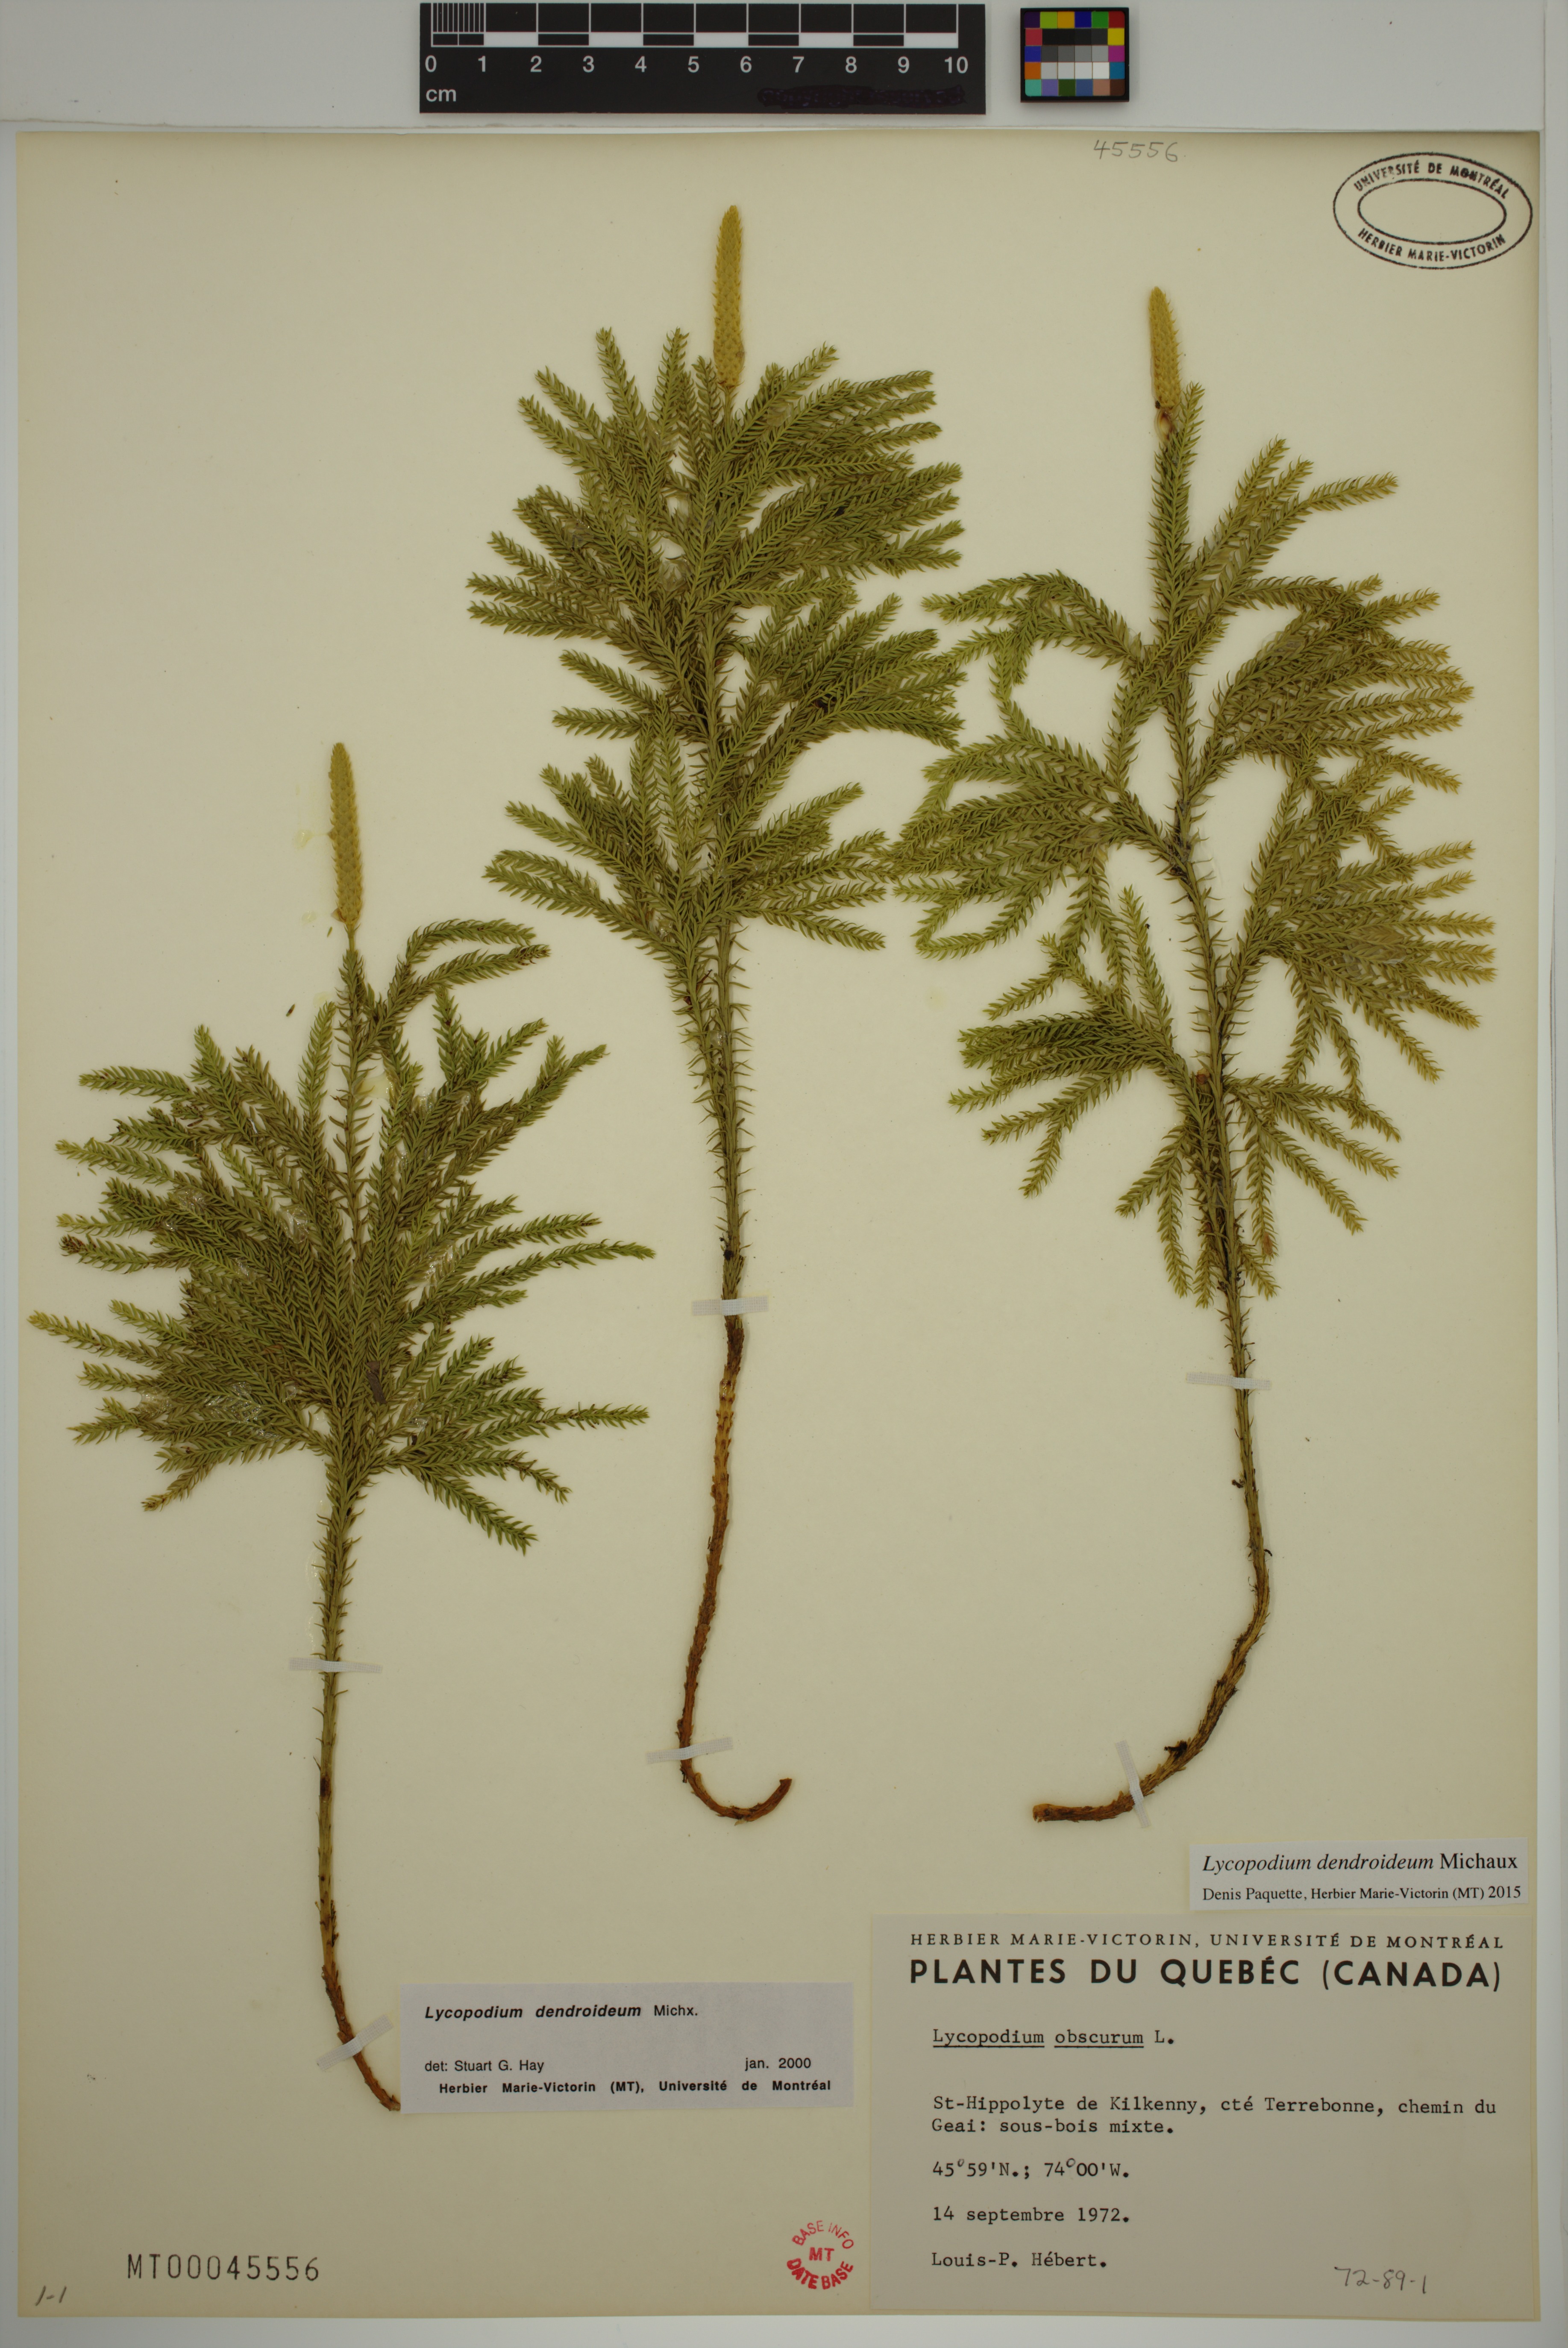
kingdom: Plantae
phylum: Tracheophyta
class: Lycopodiopsida
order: Lycopodiales
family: Lycopodiaceae
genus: Dendrolycopodium
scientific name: Dendrolycopodium dendroideum
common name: Northern tree-clubmoss
